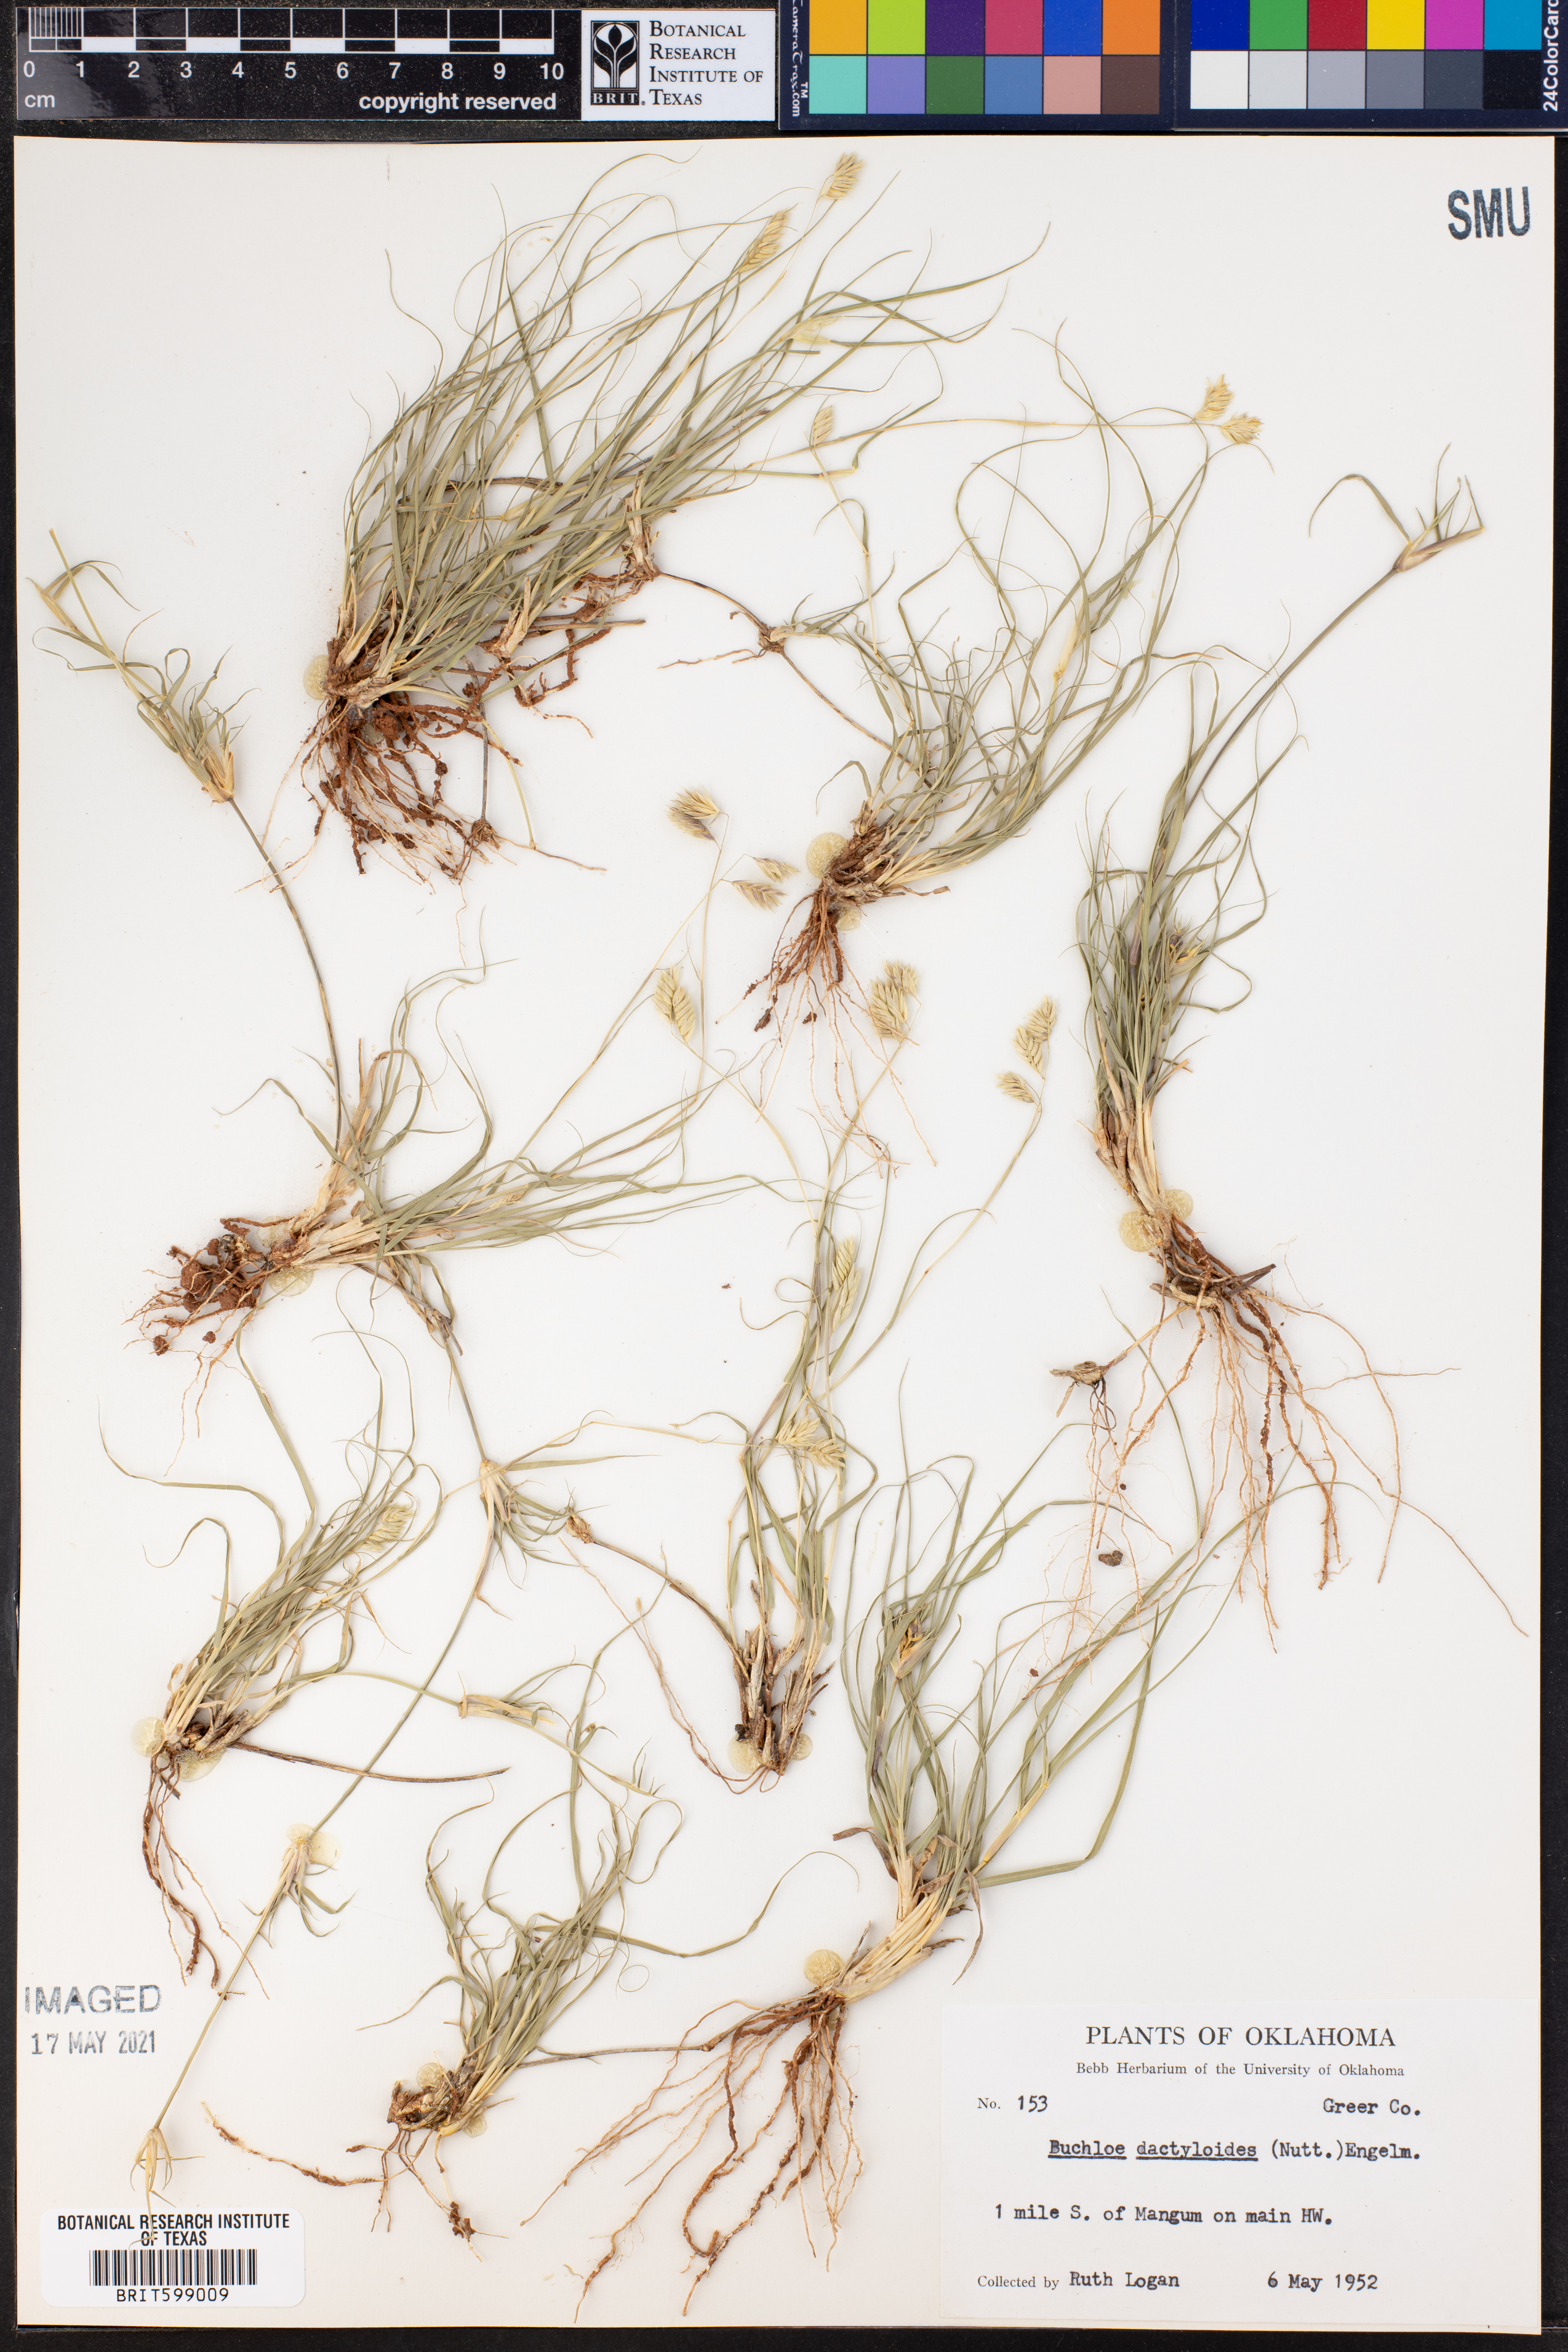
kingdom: Plantae
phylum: Tracheophyta
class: Liliopsida
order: Poales
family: Poaceae
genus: Bouteloua
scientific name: Bouteloua dactyloides
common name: Buffalo grass
